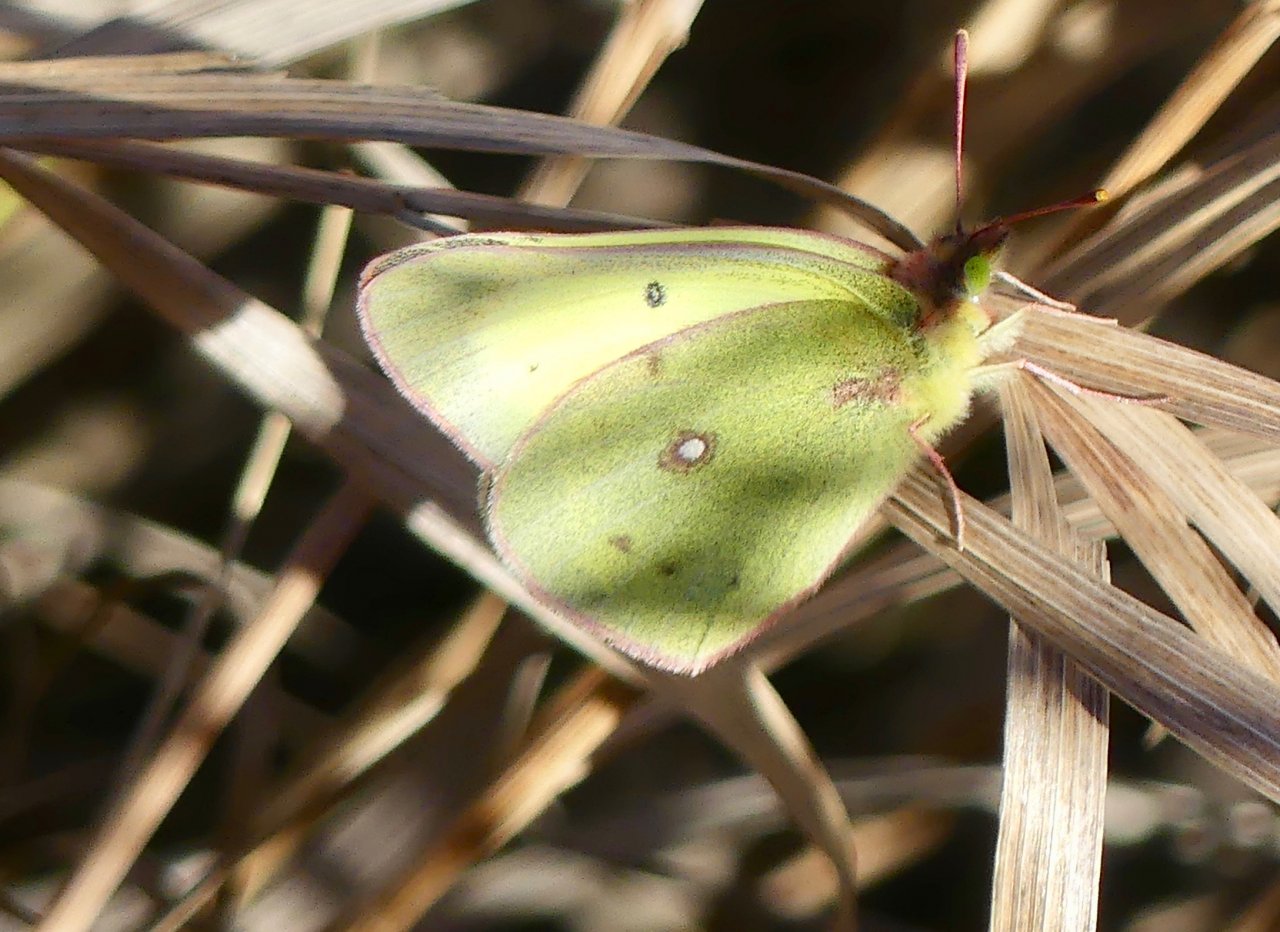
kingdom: Animalia
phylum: Arthropoda
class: Insecta
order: Lepidoptera
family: Pieridae
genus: Colias
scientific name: Colias philodice
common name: Clouded Sulphur
